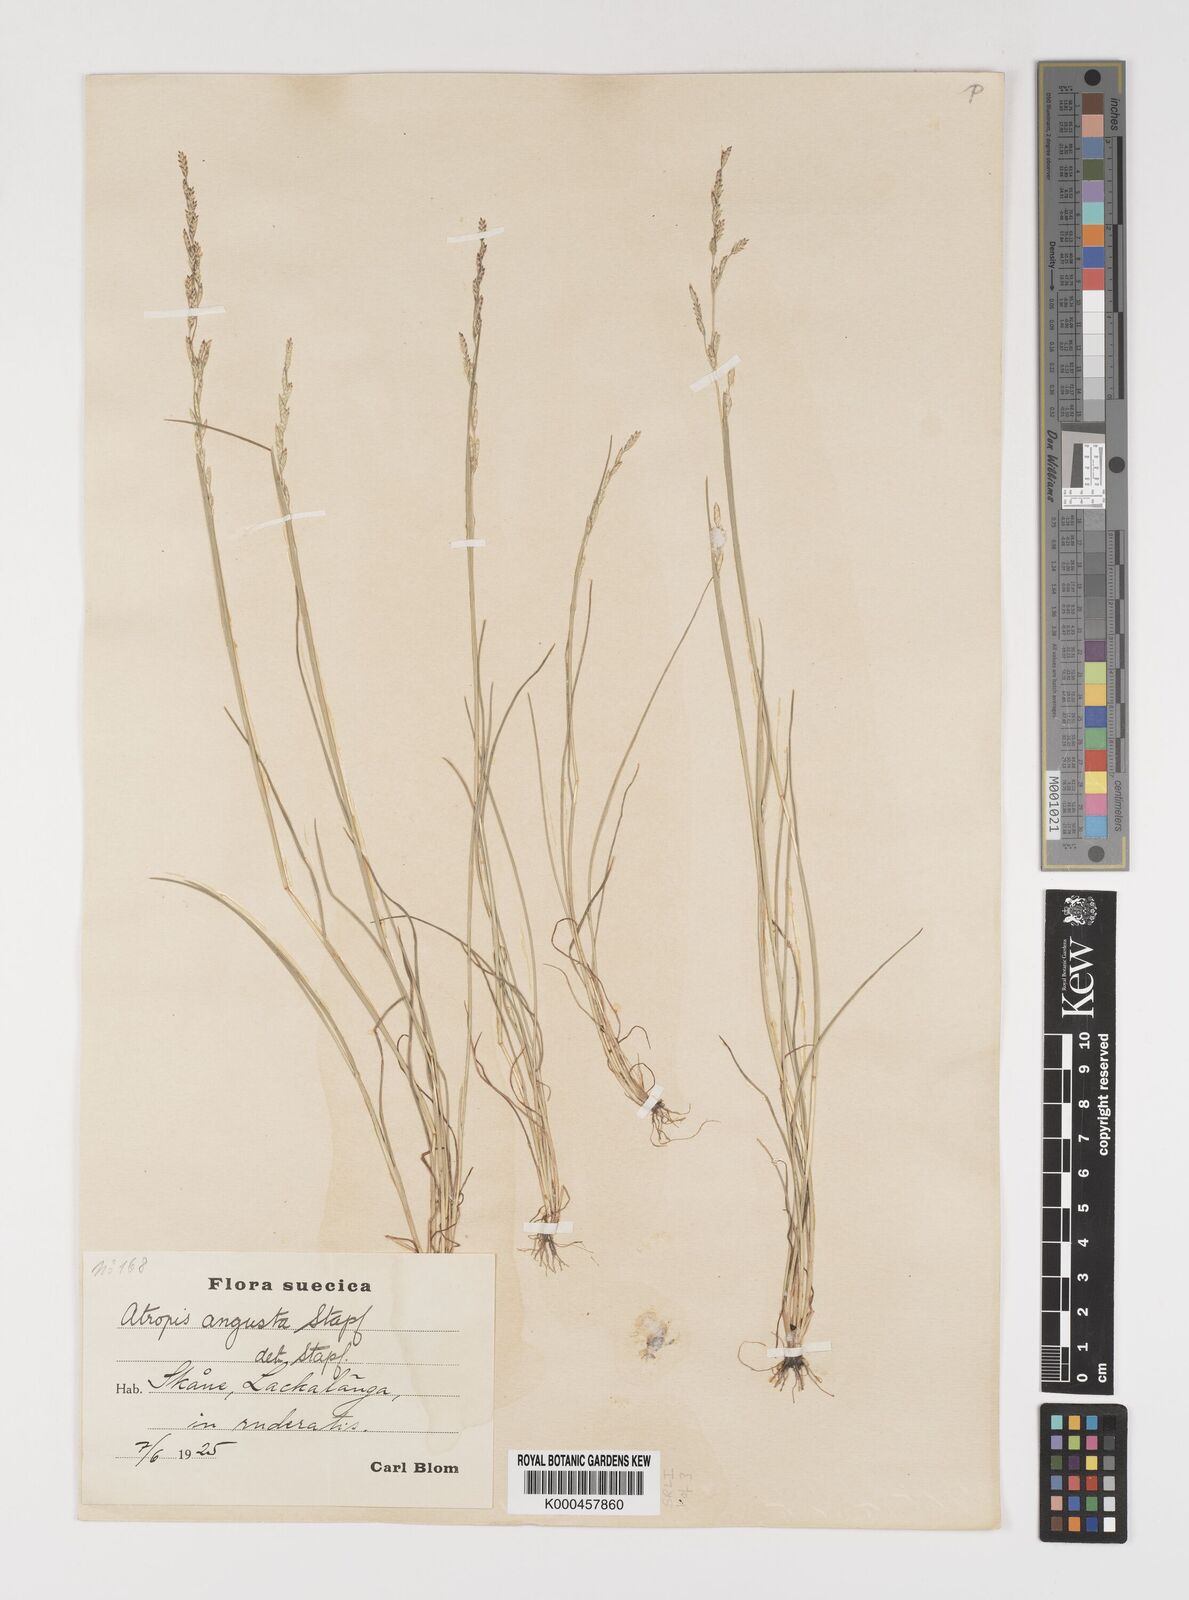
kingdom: Plantae
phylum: Tracheophyta
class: Liliopsida
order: Poales
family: Poaceae
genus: Puccinellia
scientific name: Puccinellia angustata
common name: Narrow alkaligrass
